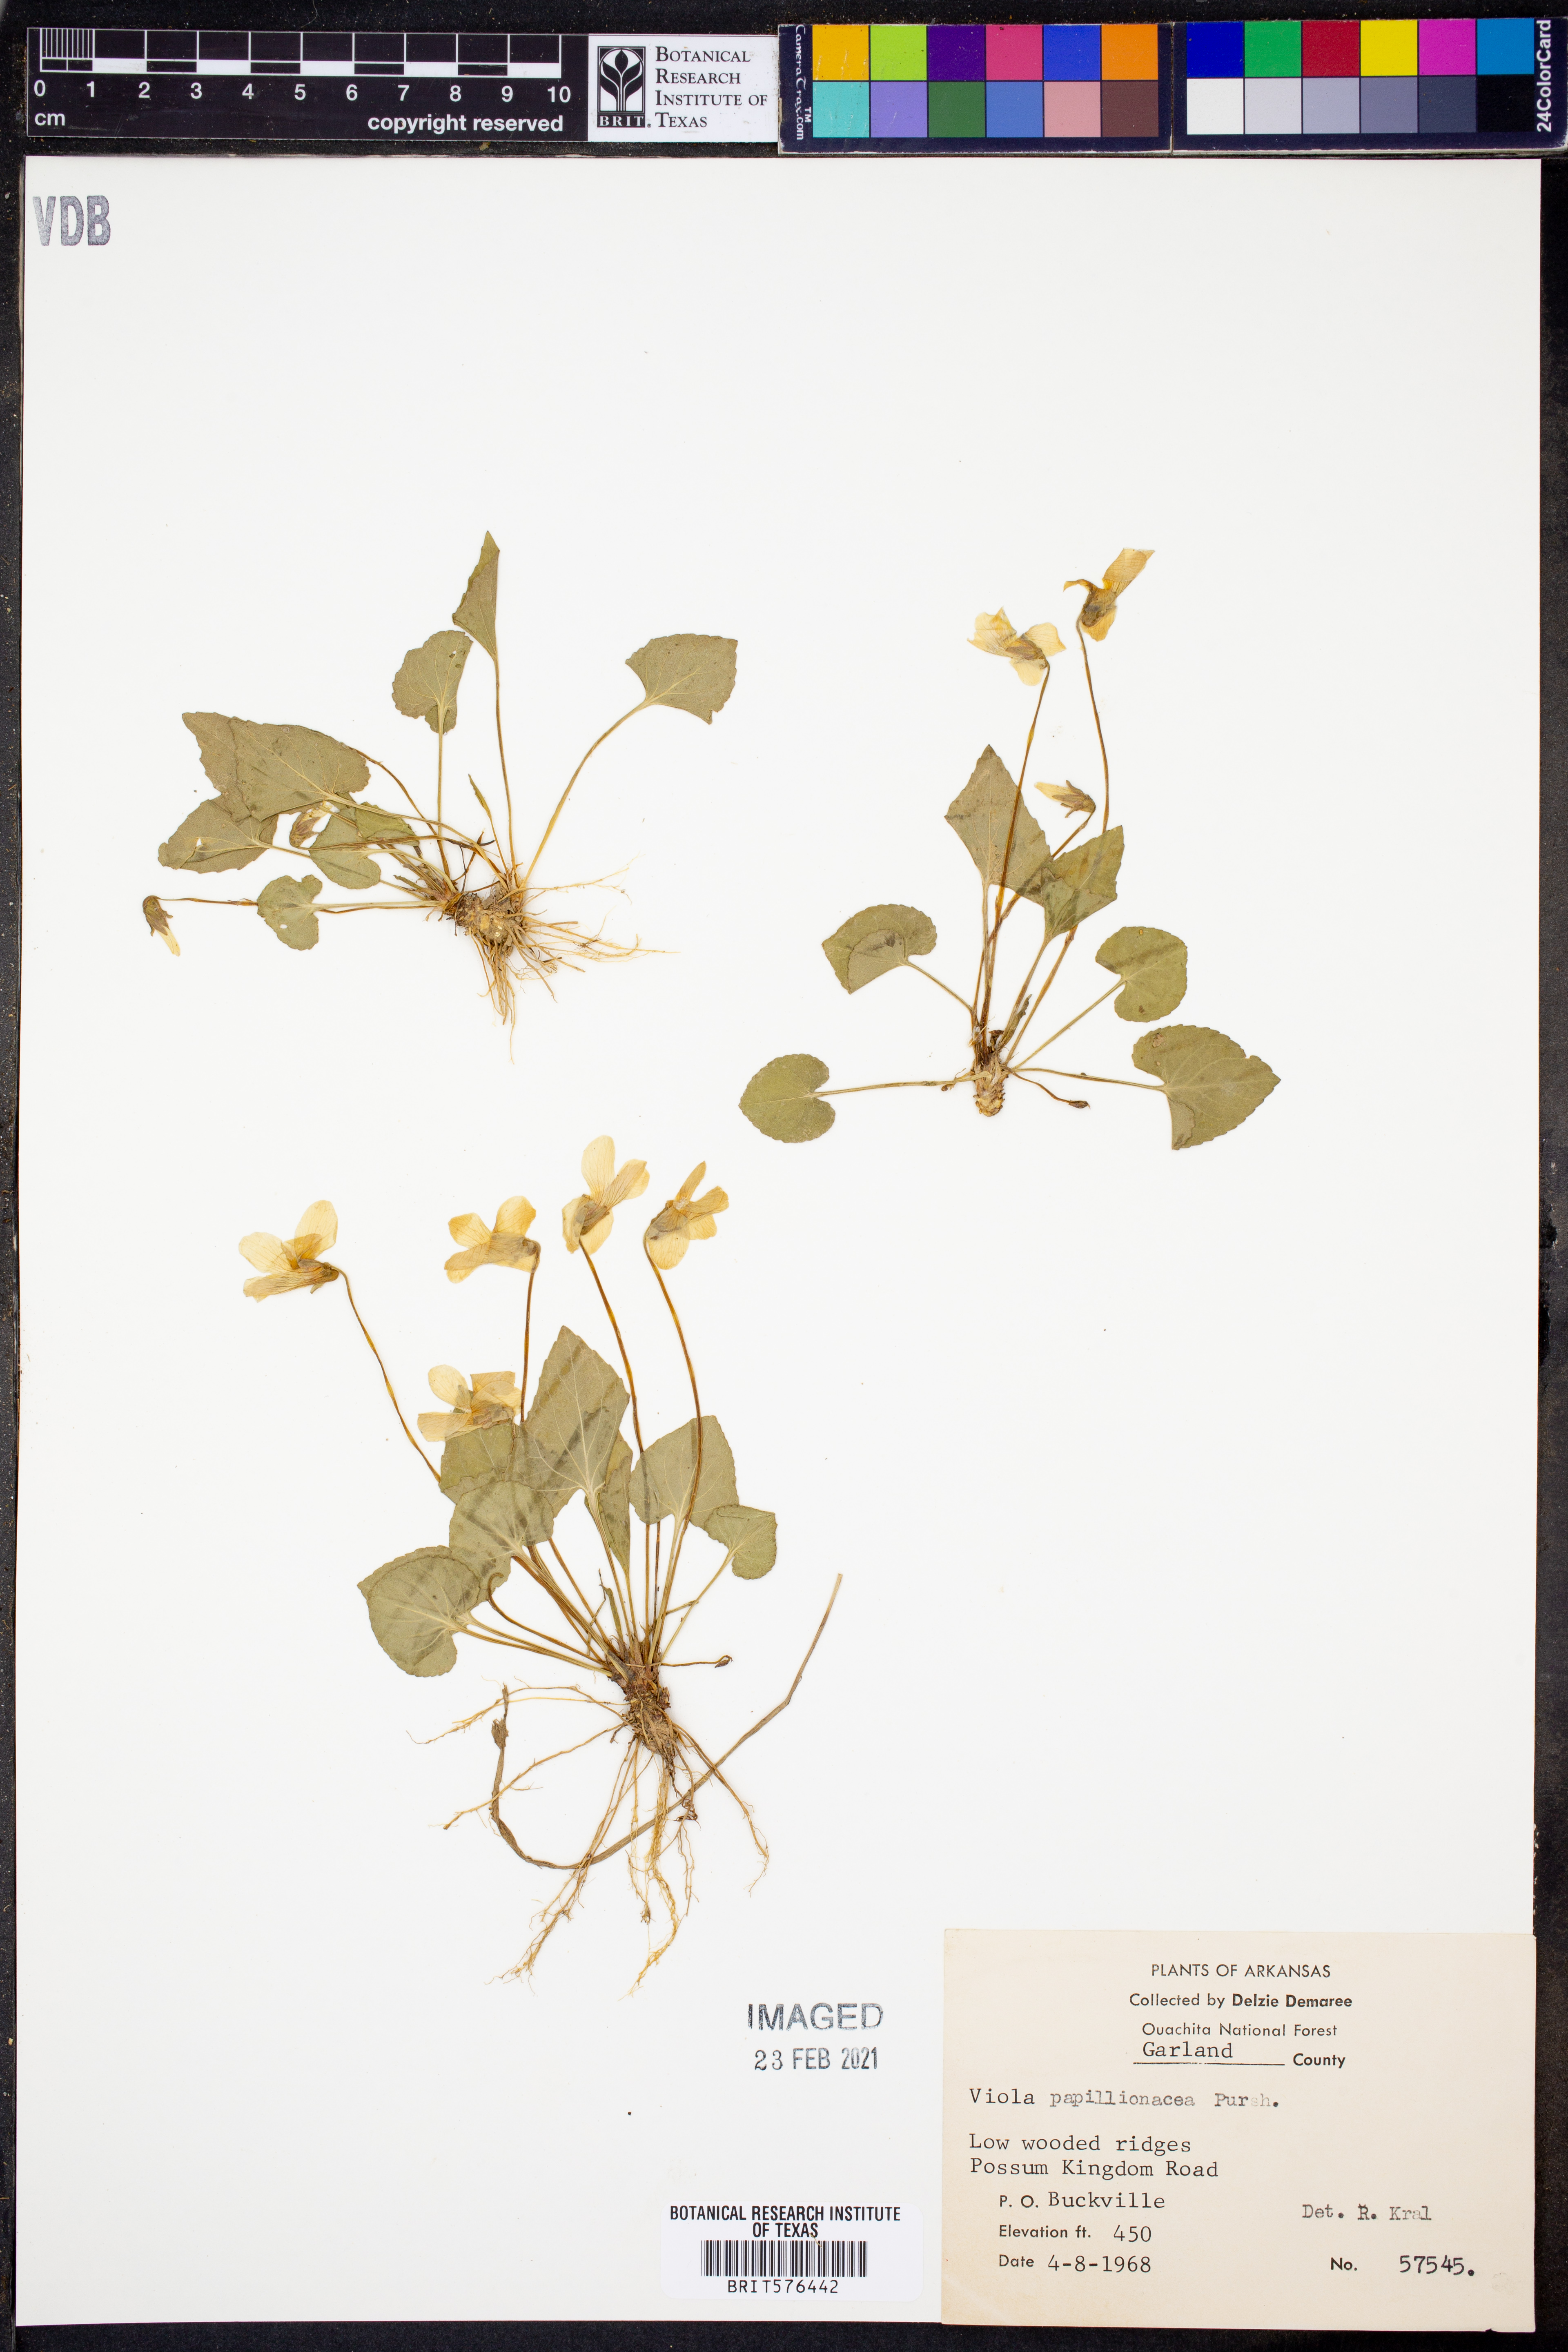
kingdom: Plantae
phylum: Tracheophyta
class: Magnoliopsida
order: Malpighiales
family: Violaceae
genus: Viola
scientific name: Viola sororia
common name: Dooryard violet
